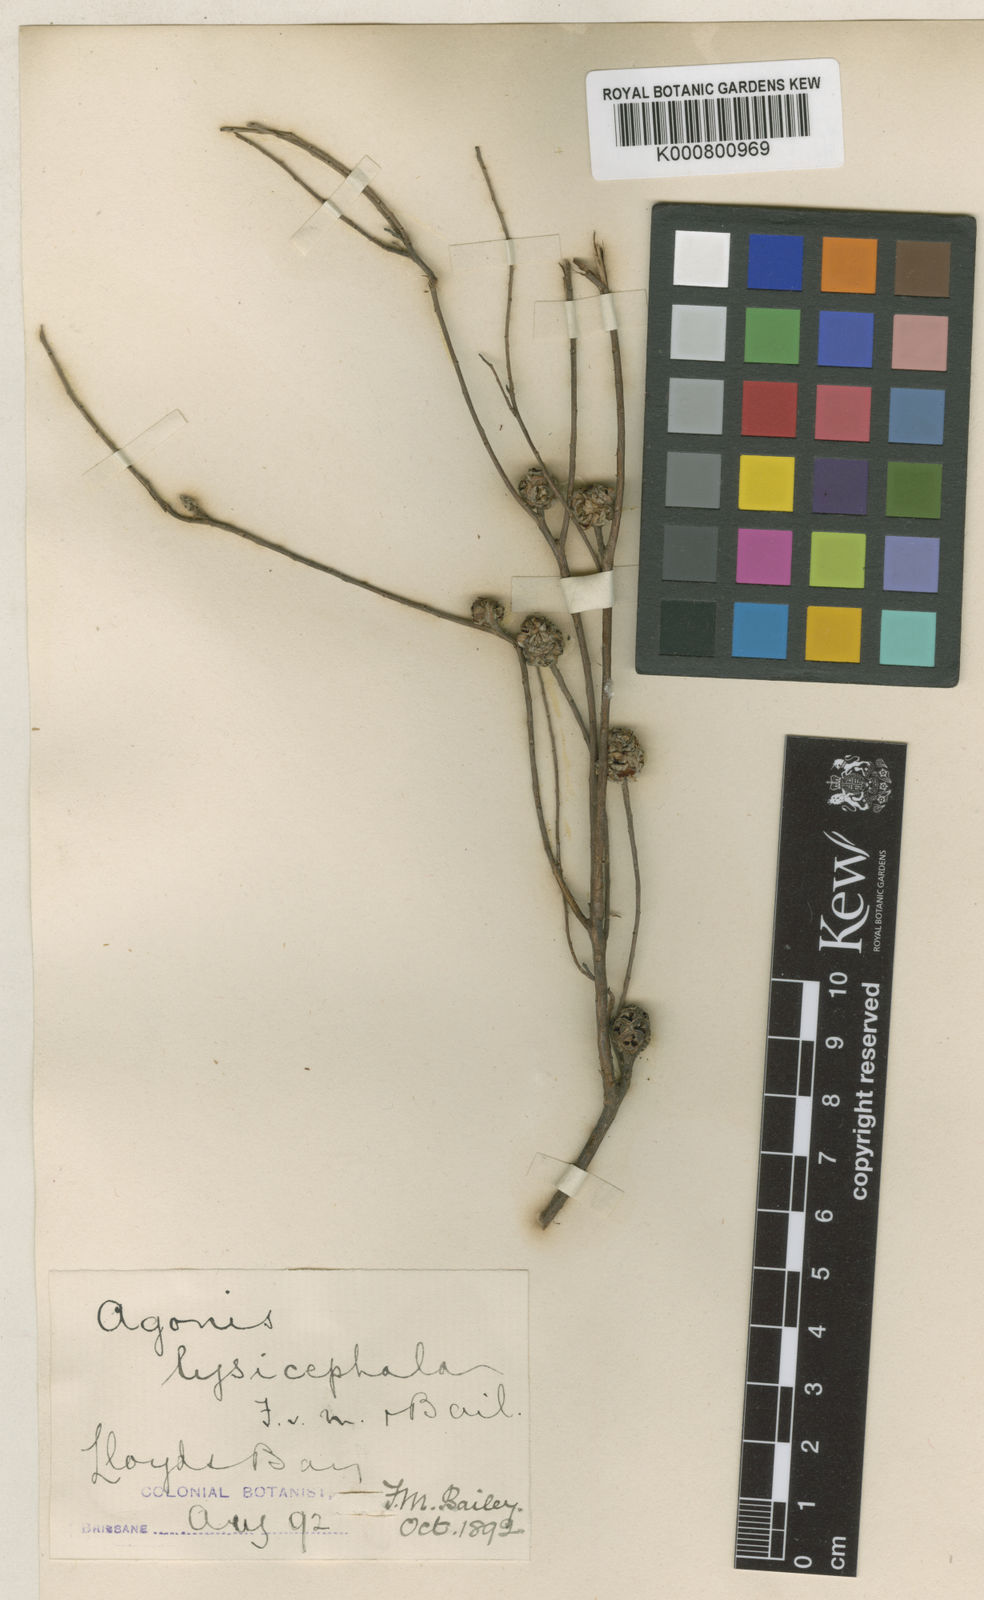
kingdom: Plantae
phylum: Tracheophyta
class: Magnoliopsida
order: Myrtales
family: Myrtaceae
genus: Asteromyrtus
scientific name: Asteromyrtus lysicephala
